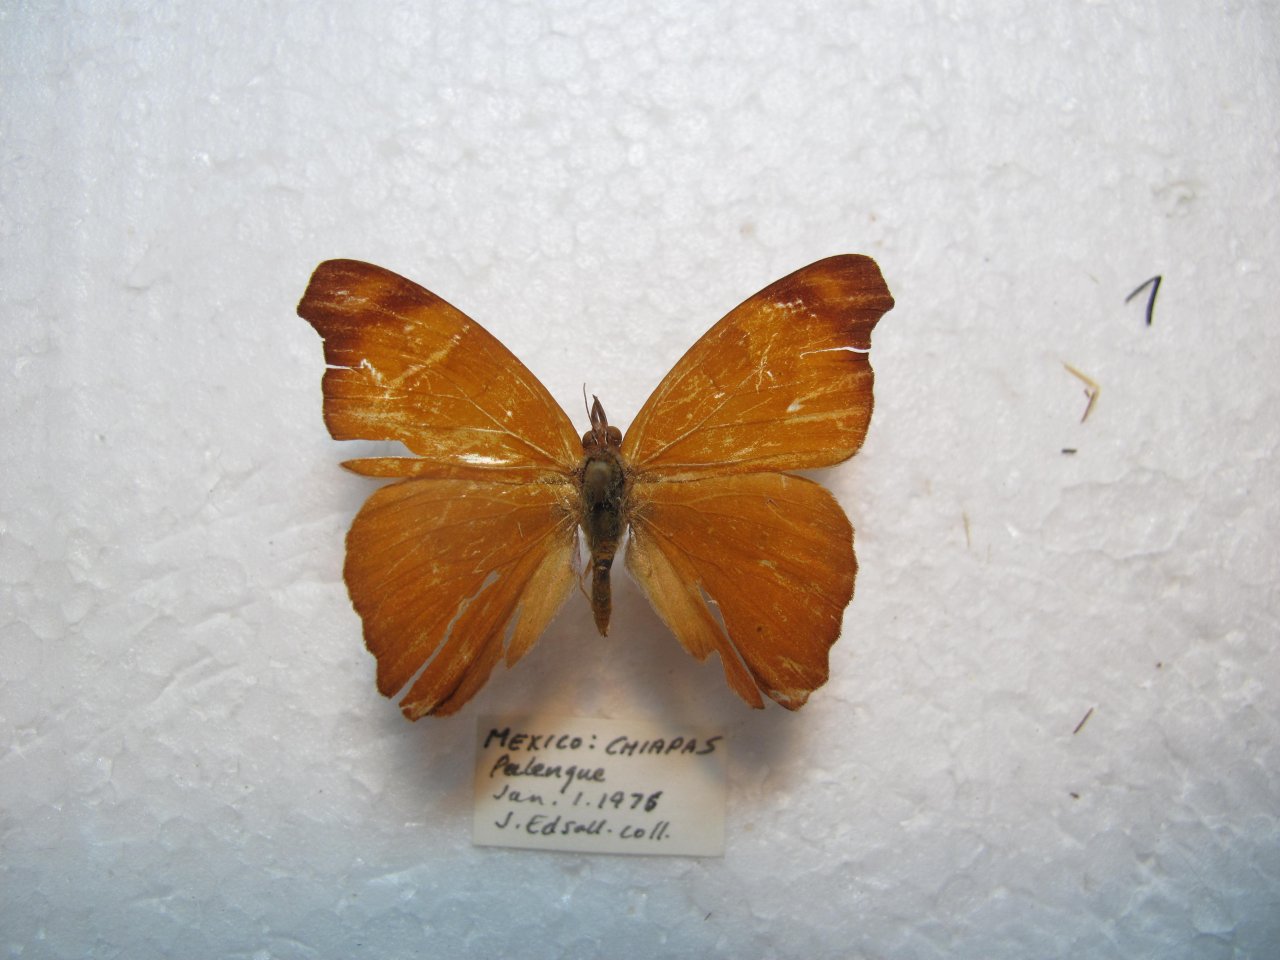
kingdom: Animalia
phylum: Arthropoda
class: Insecta
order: Lepidoptera
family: Nymphalidae
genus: Temenis
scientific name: Temenis laothoe
